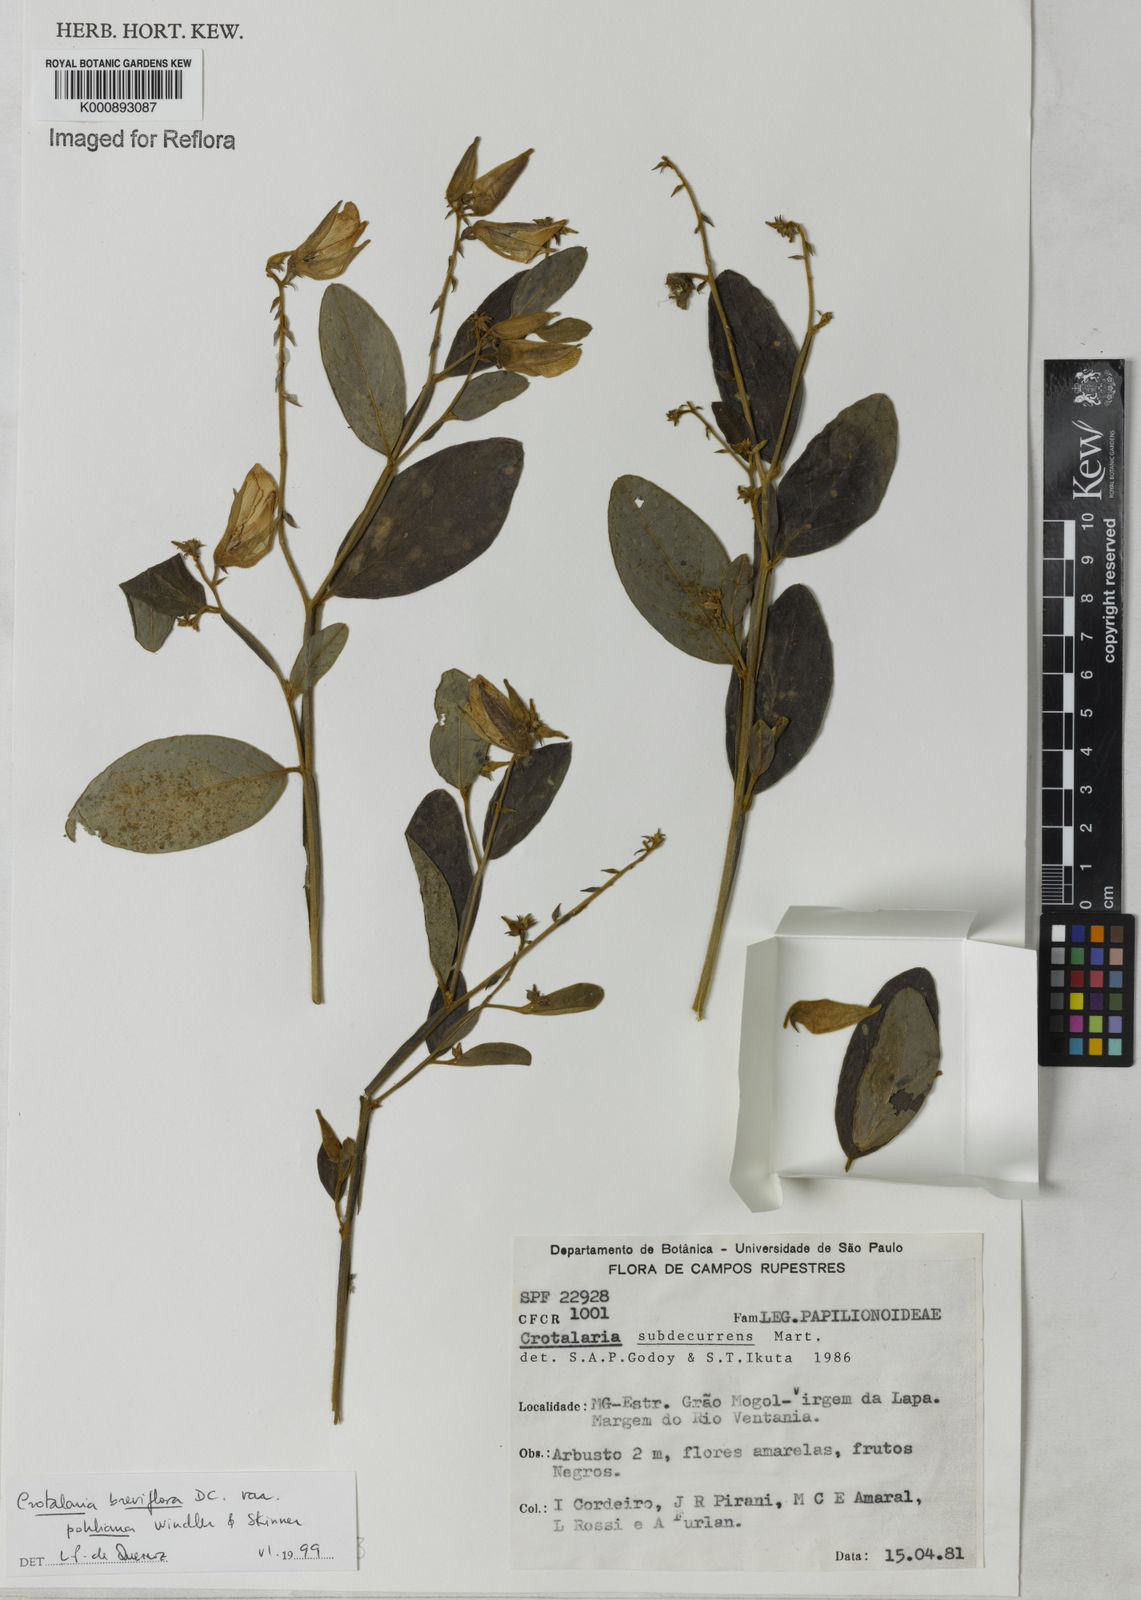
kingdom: Plantae
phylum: Tracheophyta
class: Magnoliopsida
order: Fabales
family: Fabaceae
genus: Crotalaria
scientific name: Crotalaria subdecurrens
